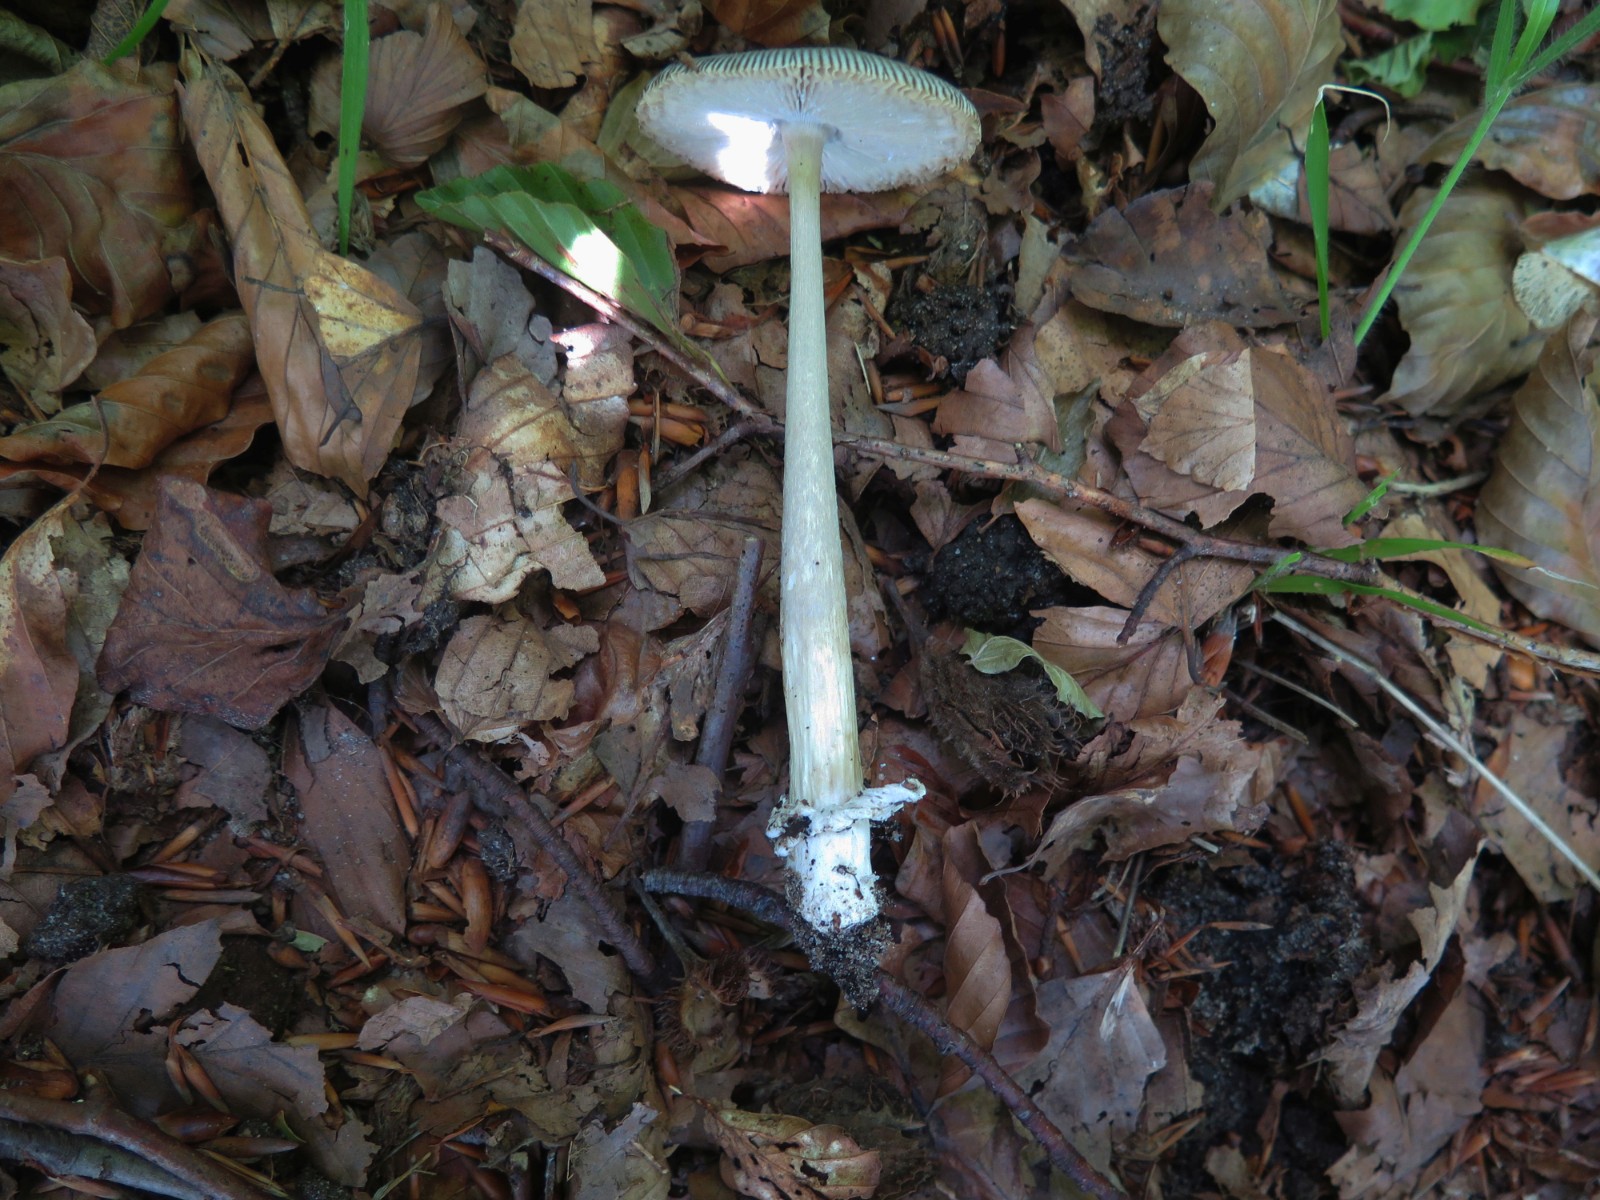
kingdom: Fungi
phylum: Basidiomycota
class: Agaricomycetes
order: Agaricales
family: Amanitaceae
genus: Amanita
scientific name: Amanita vaginata
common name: grå kam-fluesvamp
